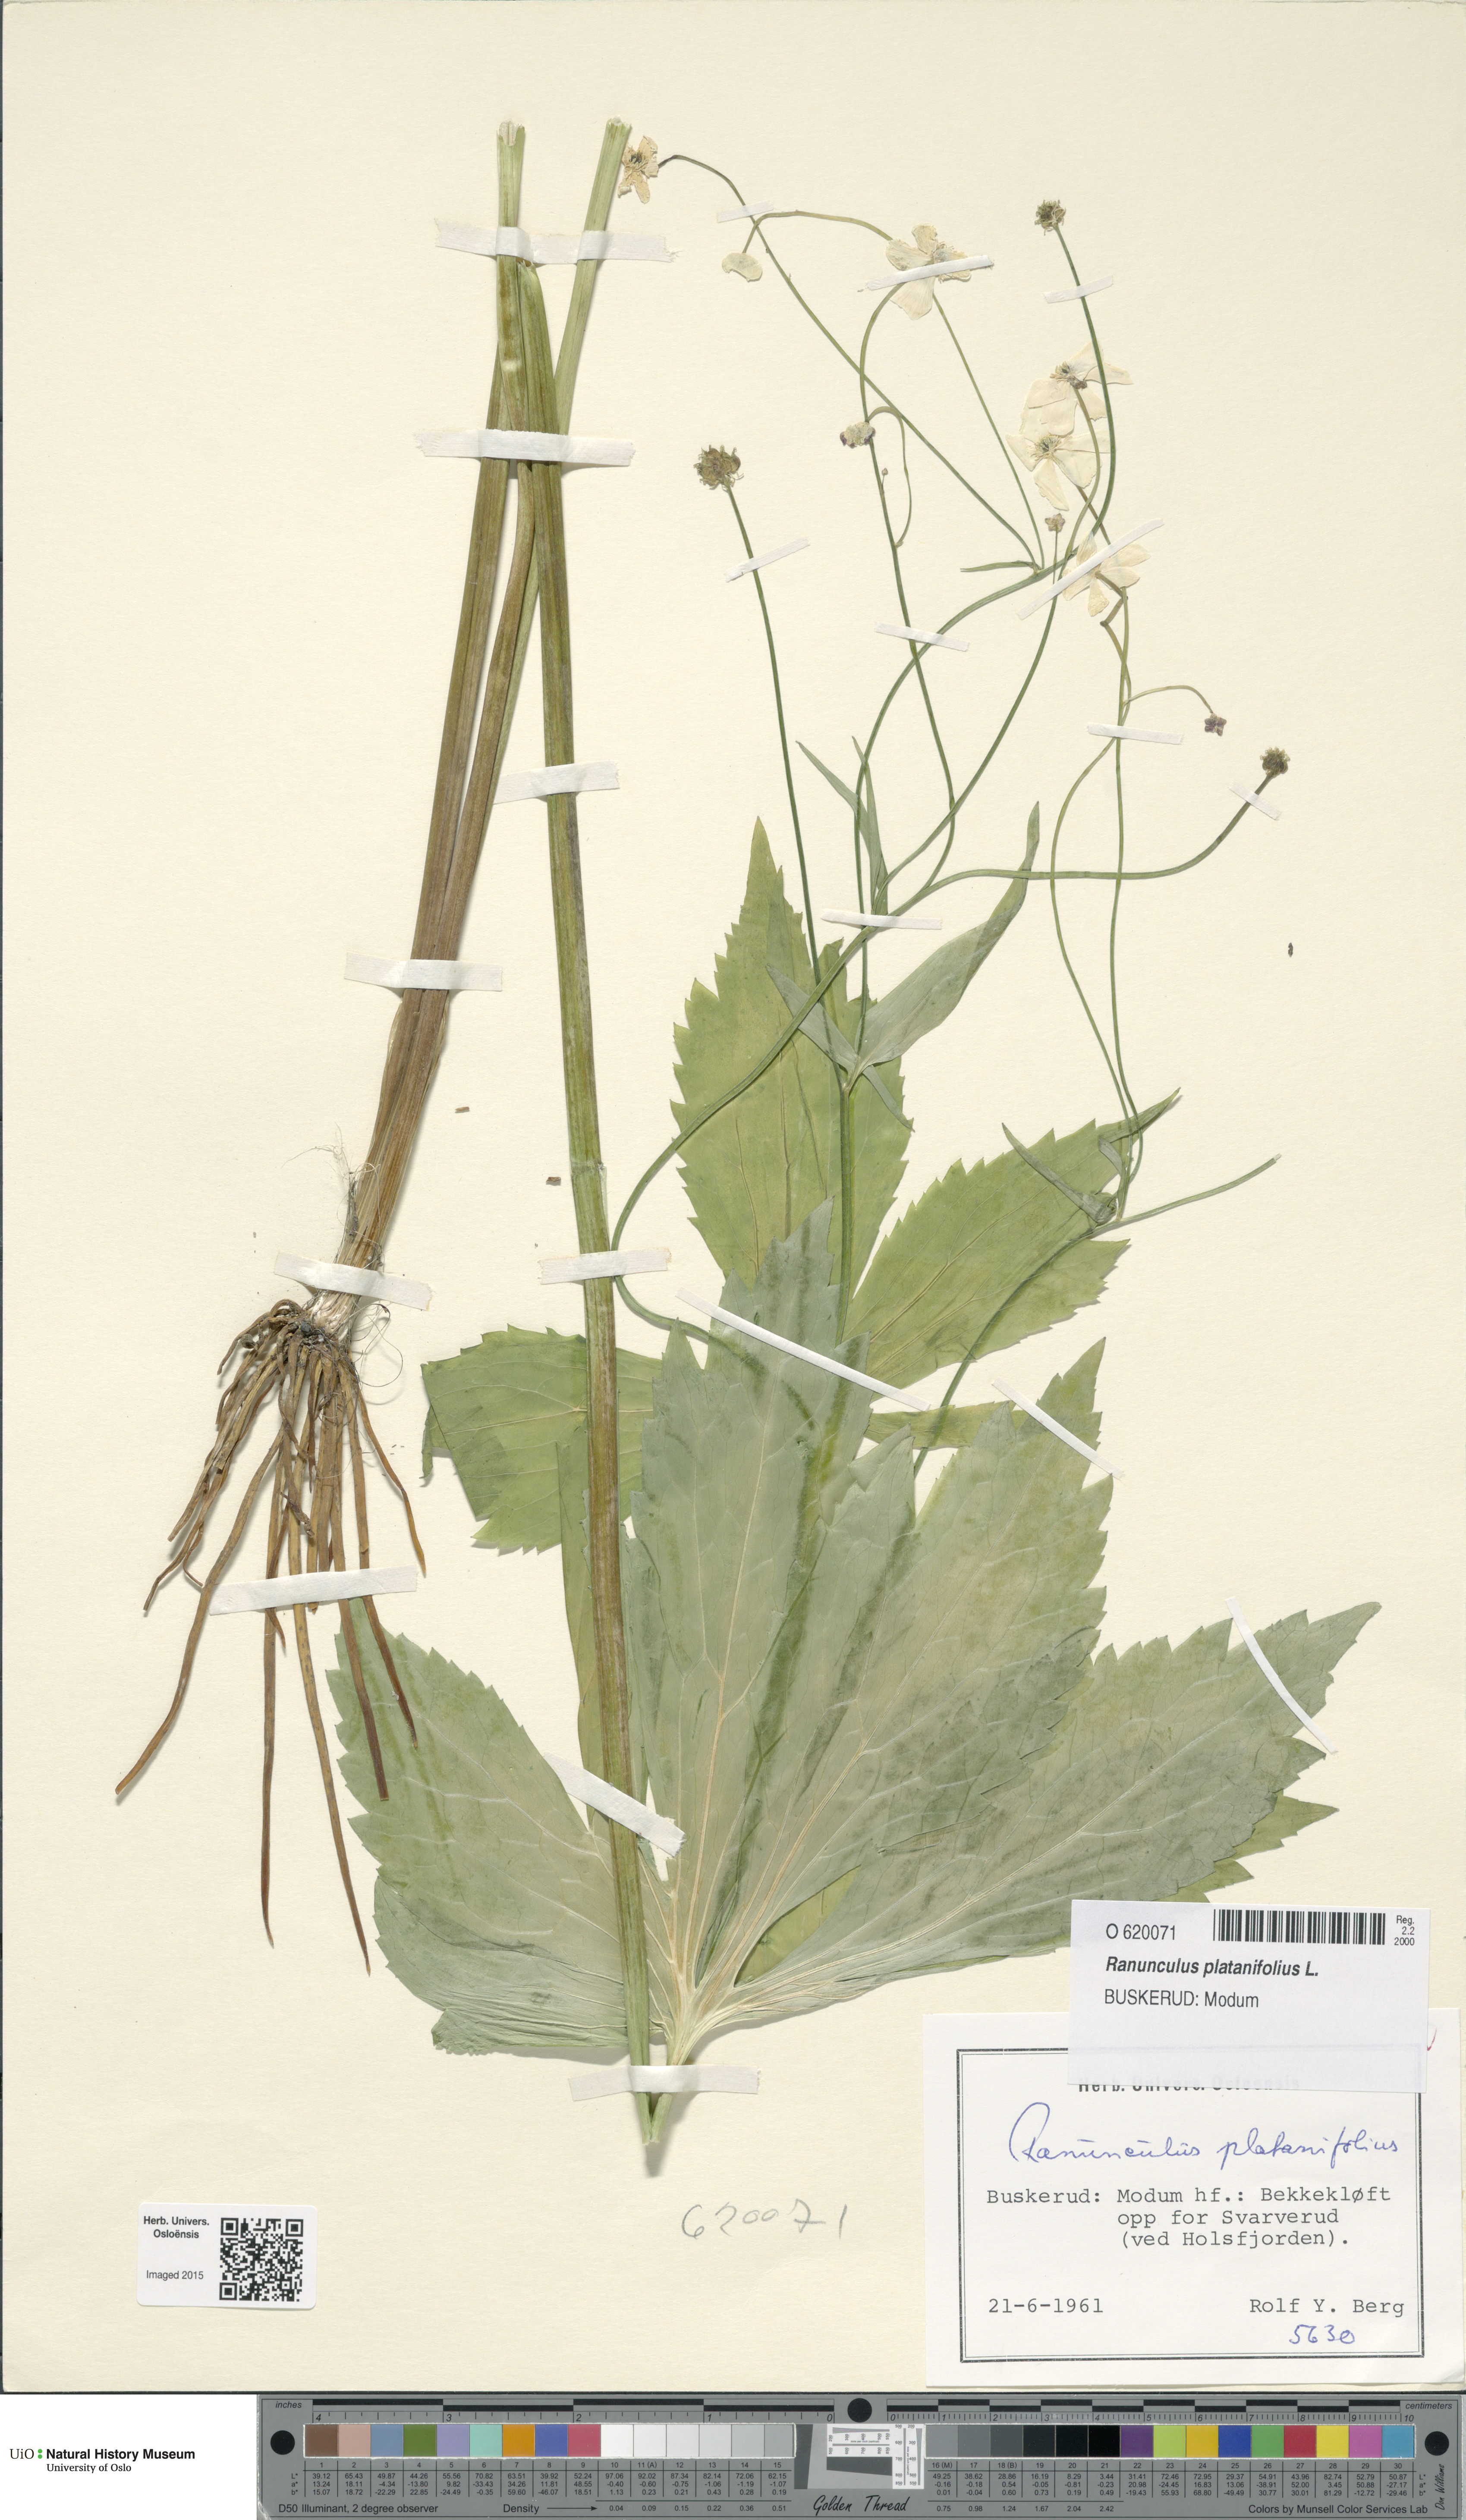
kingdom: Plantae
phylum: Tracheophyta
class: Magnoliopsida
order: Ranunculales
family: Ranunculaceae
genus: Ranunculus
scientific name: Ranunculus platanifolius
